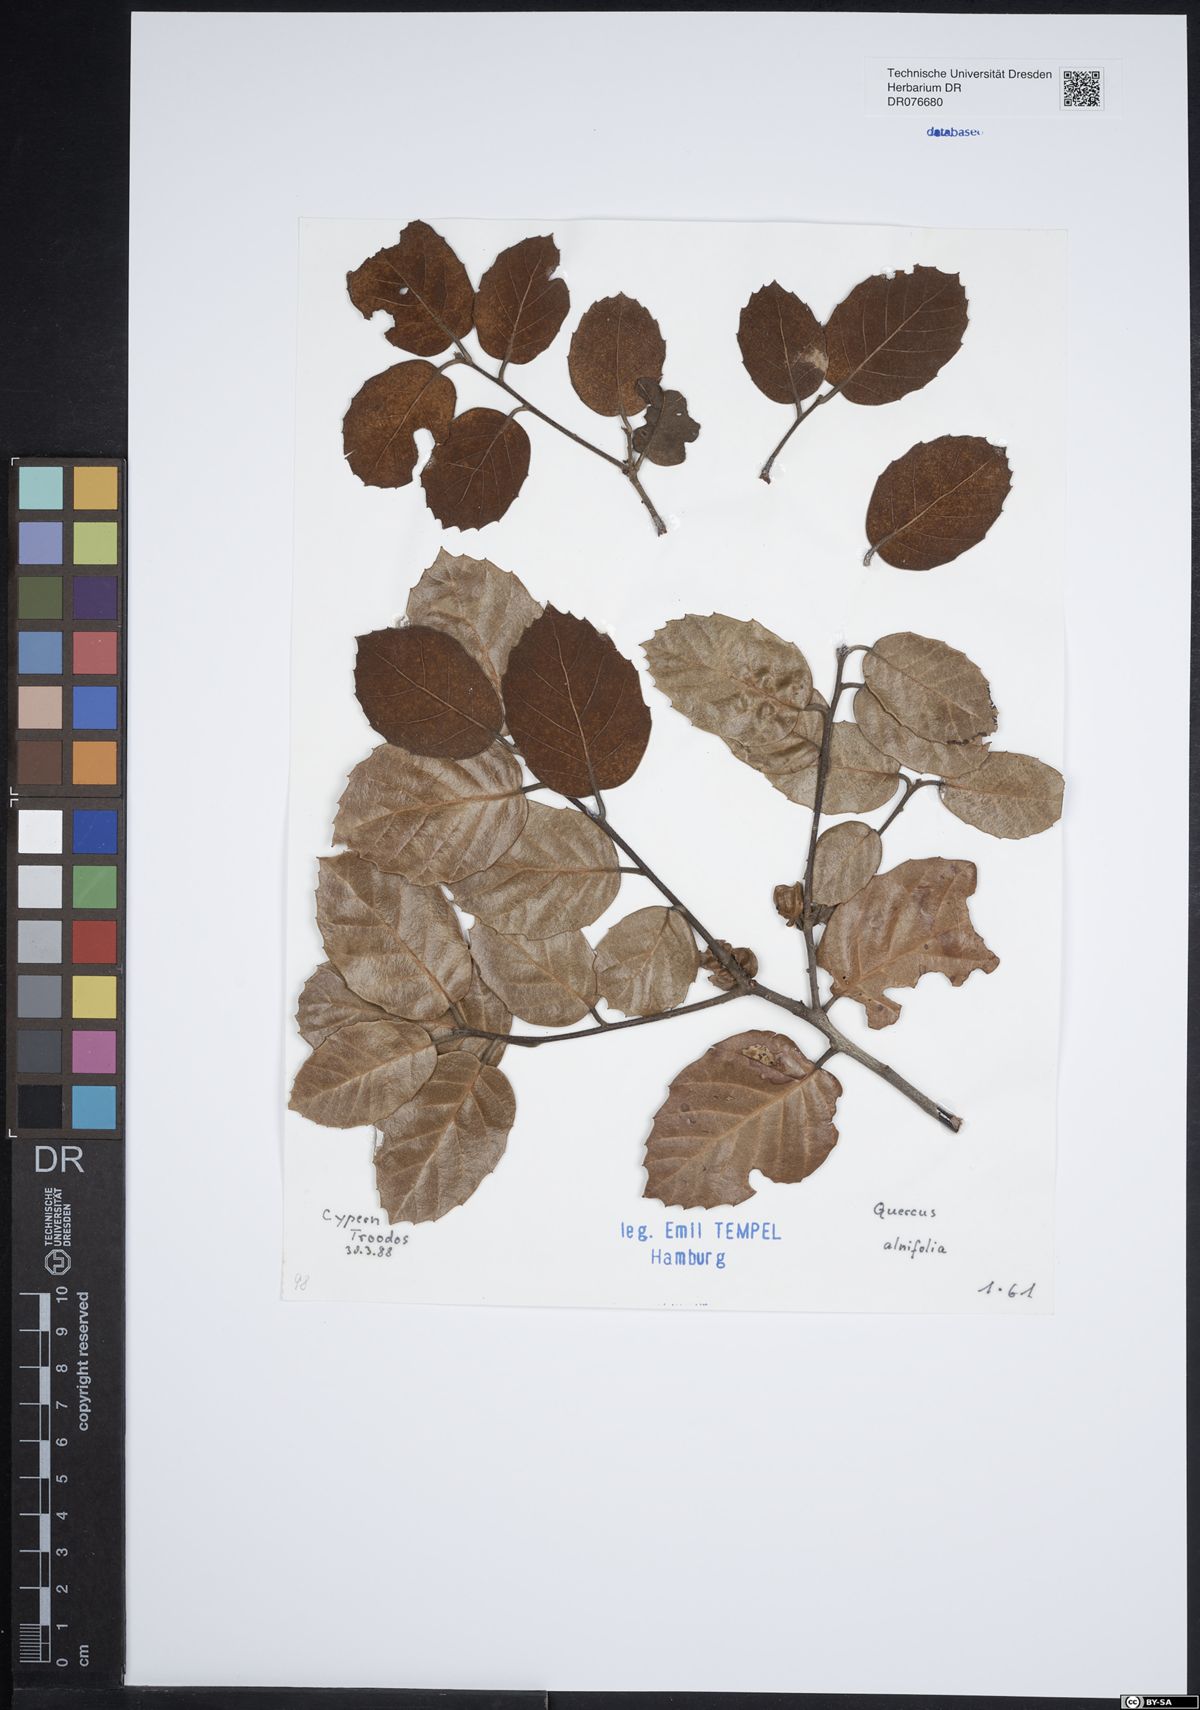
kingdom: Plantae
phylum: Tracheophyta
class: Magnoliopsida
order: Fagales
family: Fagaceae
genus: Quercus
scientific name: Quercus alnifolia
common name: Golden oak
